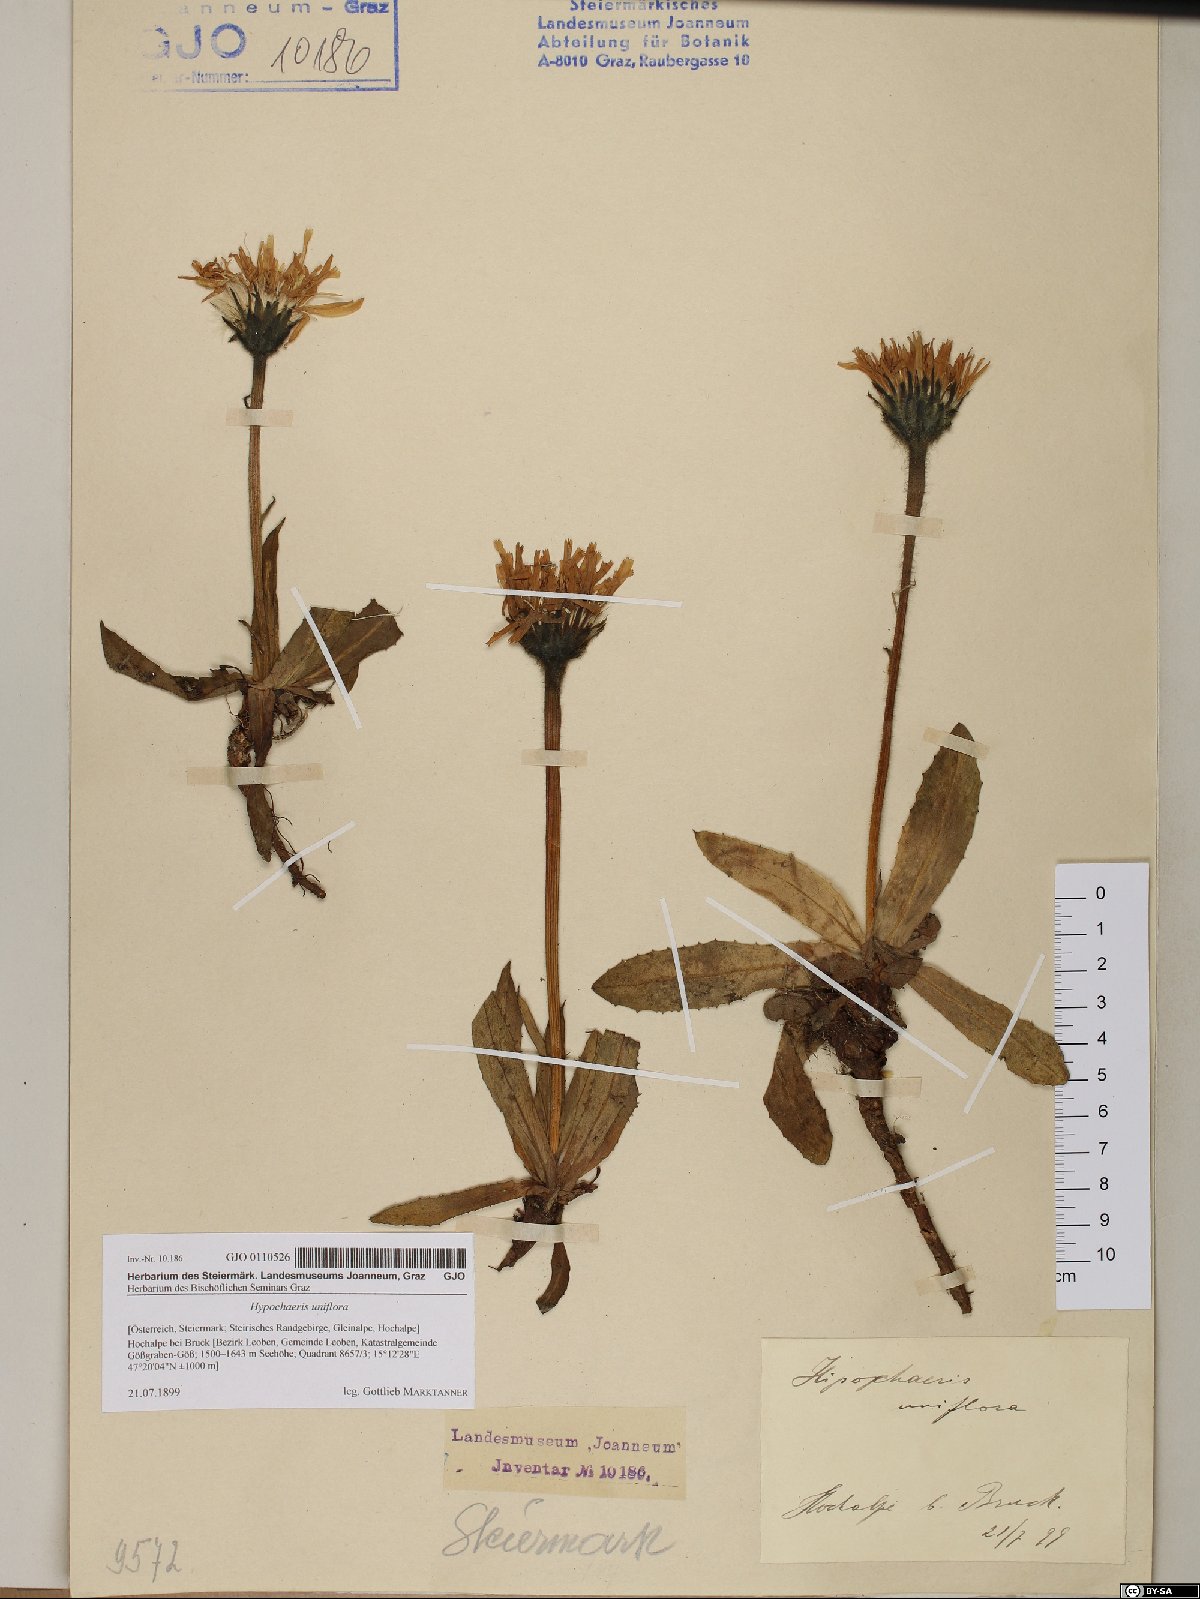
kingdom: Plantae
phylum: Tracheophyta
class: Magnoliopsida
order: Asterales
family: Asteraceae
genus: Trommsdorffia
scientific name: Trommsdorffia uniflora
